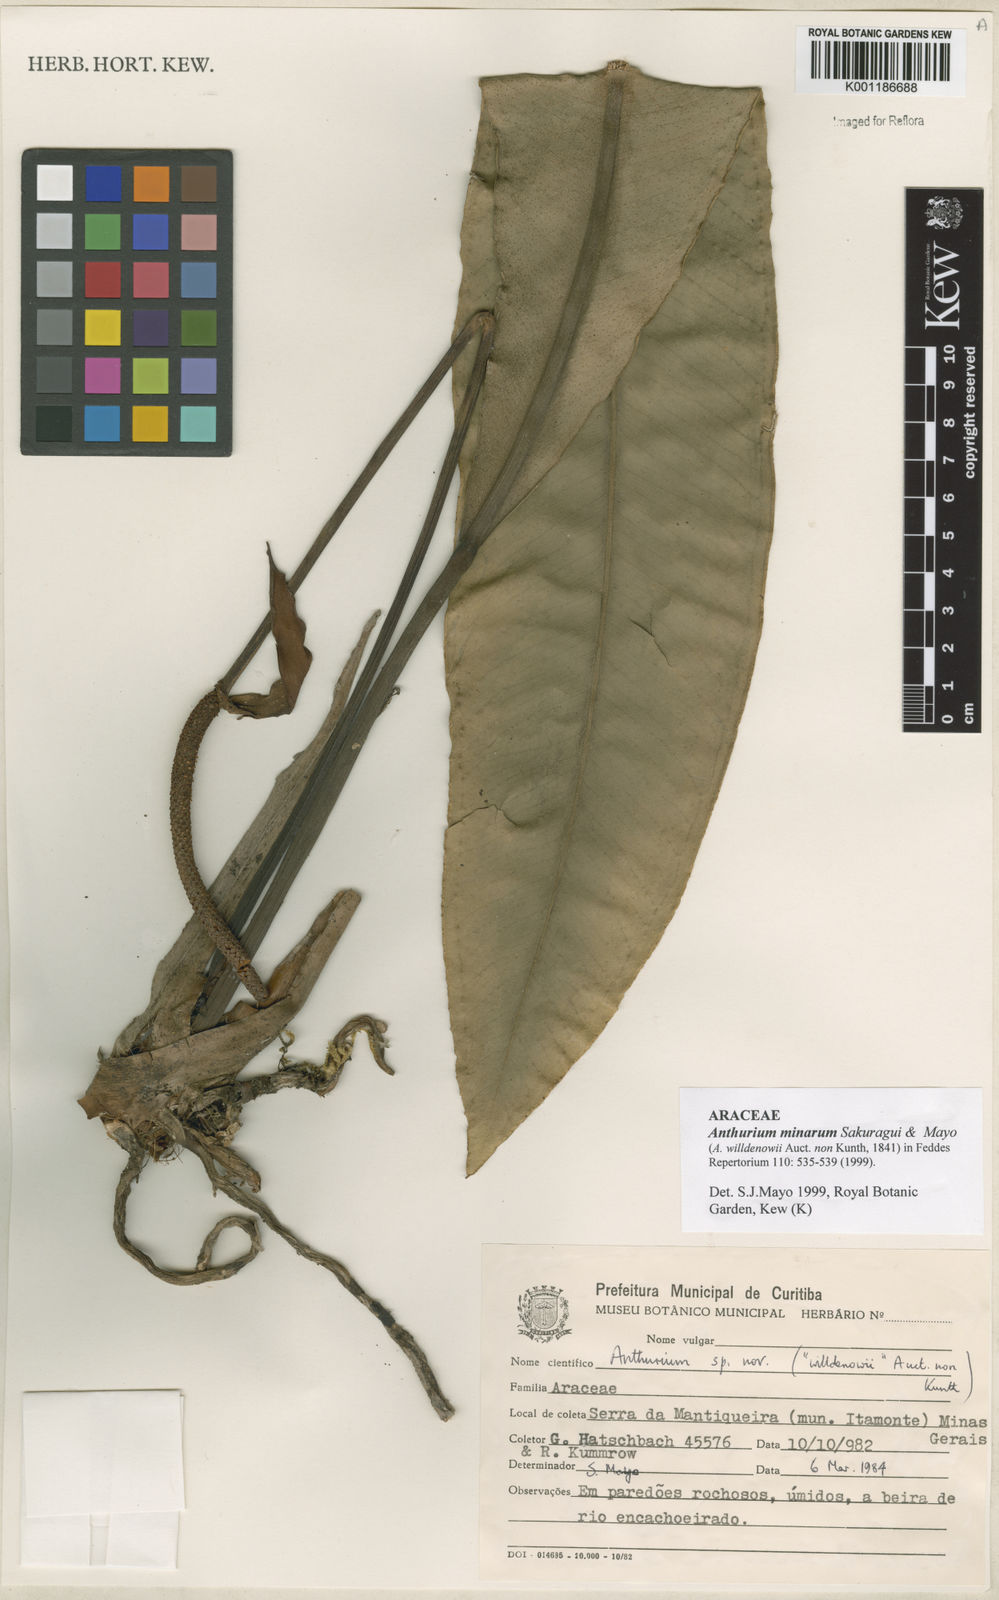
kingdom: Plantae
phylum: Tracheophyta
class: Liliopsida
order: Alismatales
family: Araceae
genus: Anthurium
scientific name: Anthurium minarum
